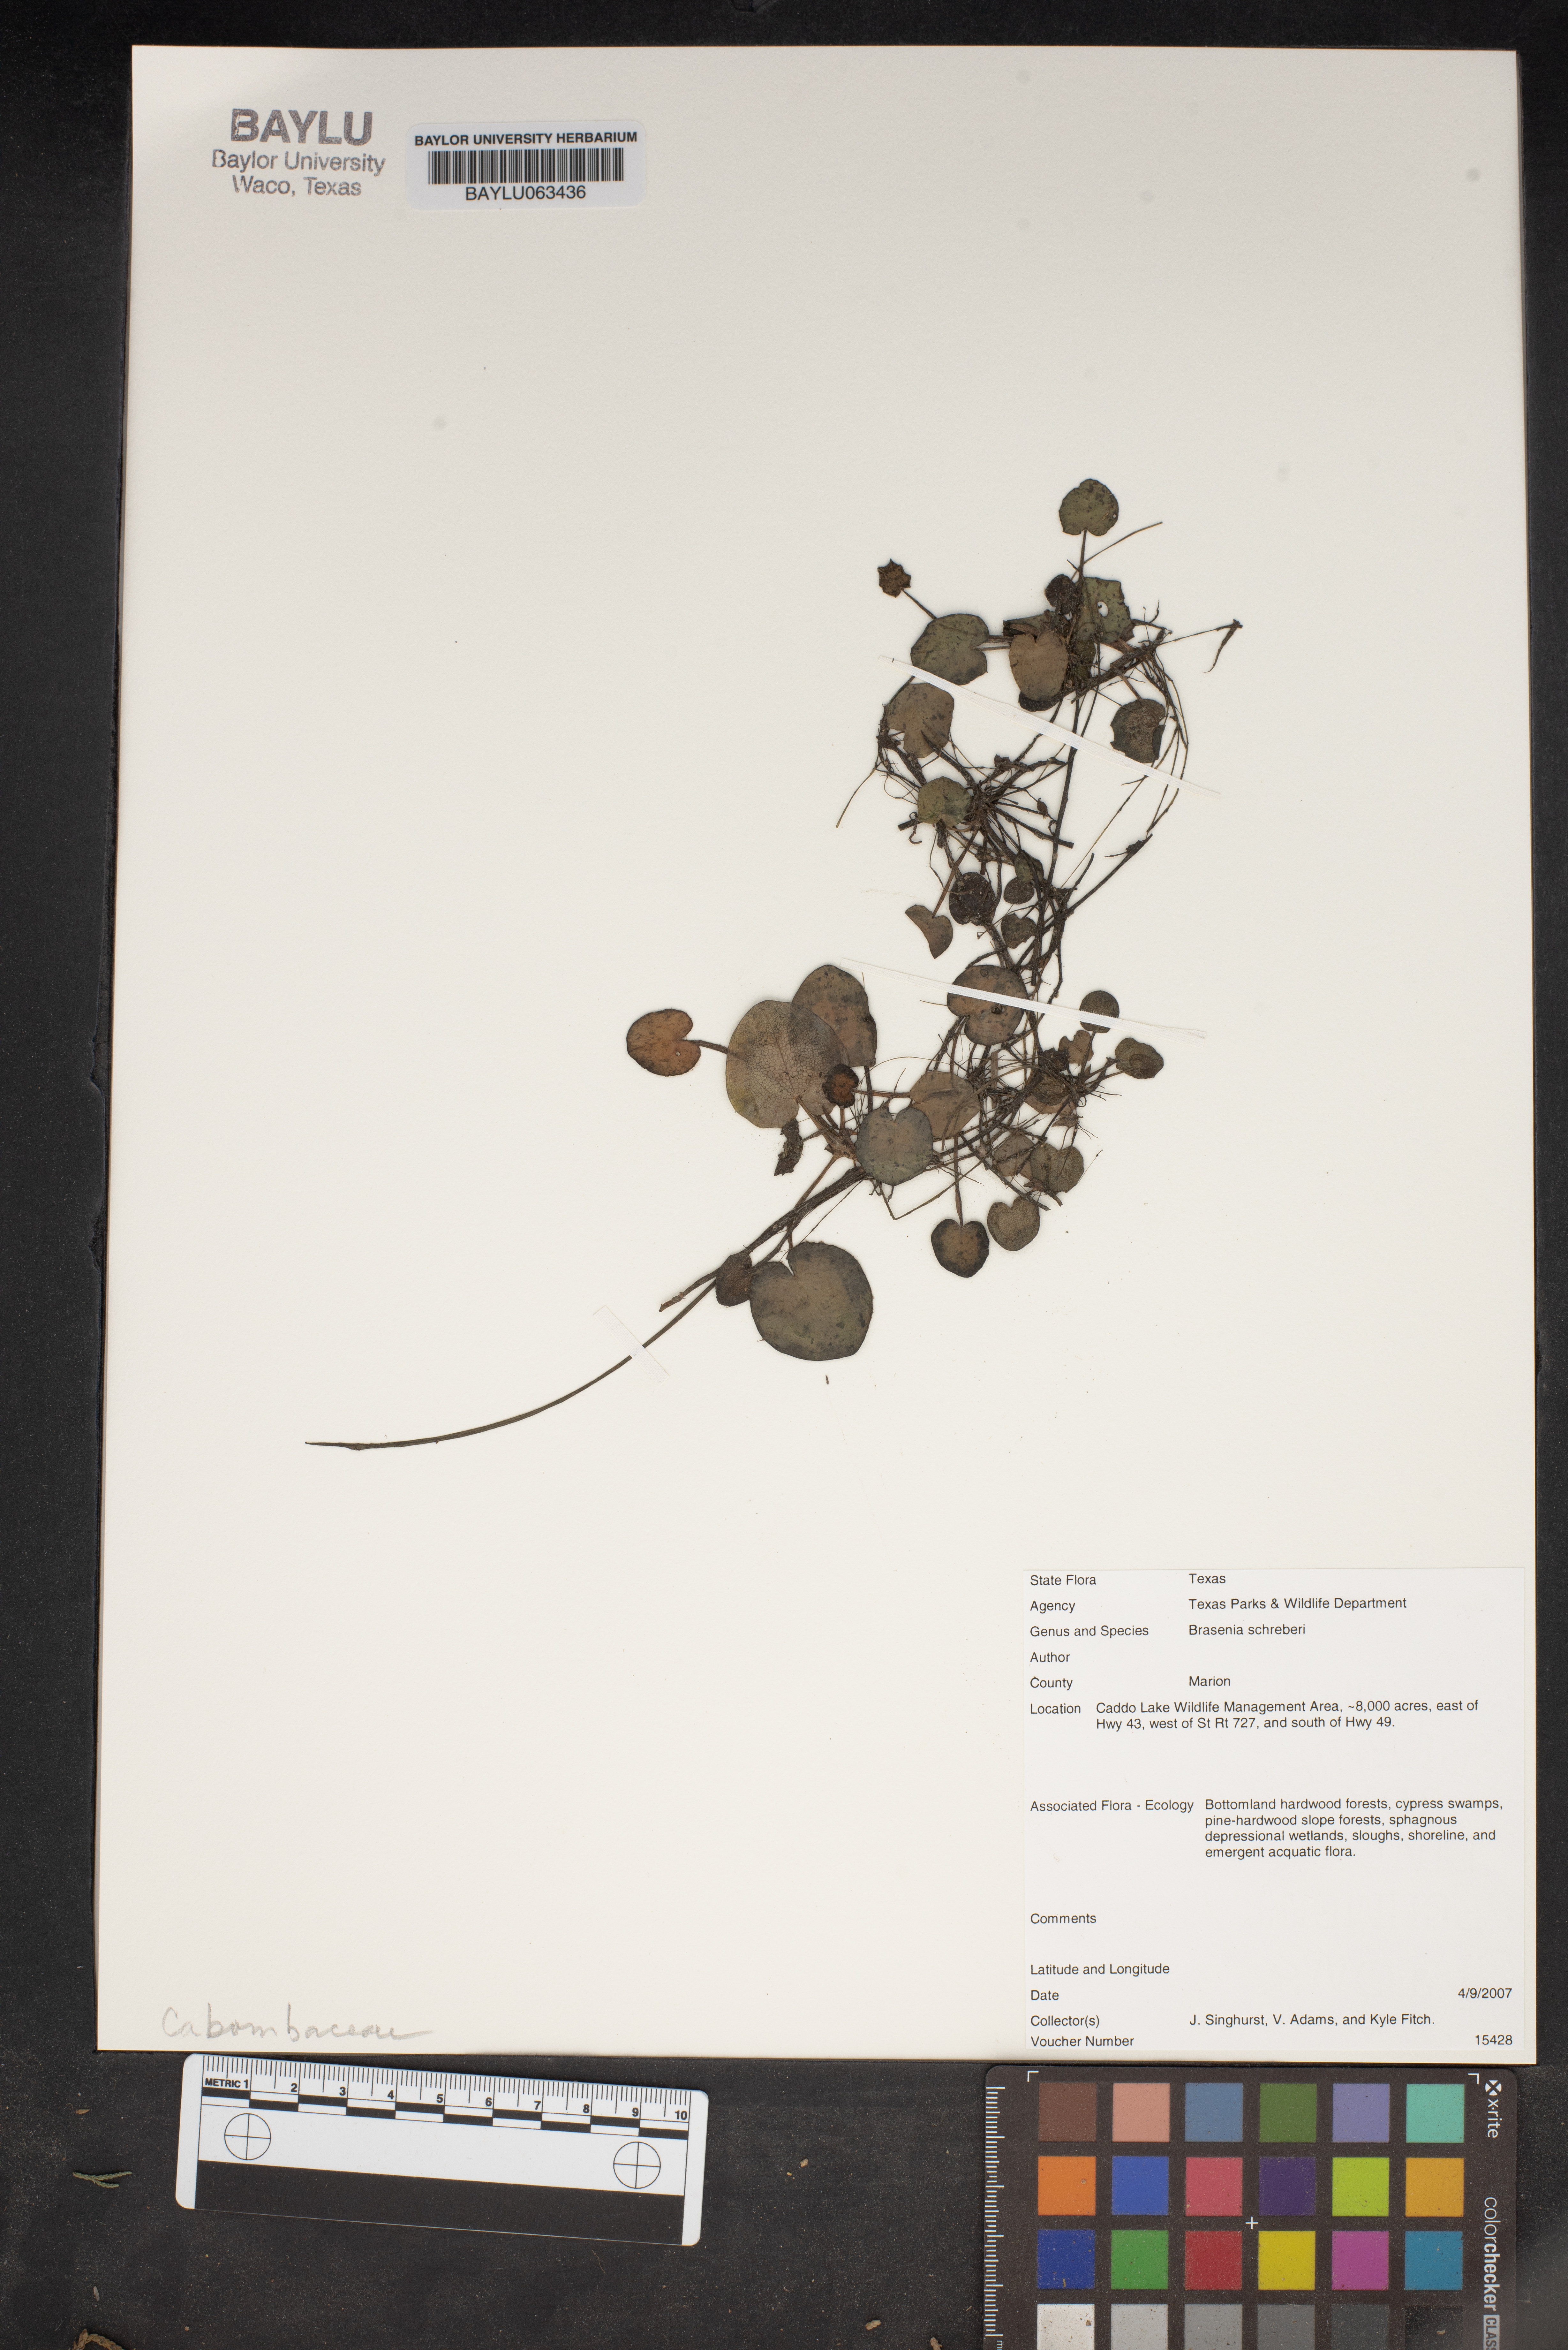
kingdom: Plantae
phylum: Tracheophyta
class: Magnoliopsida
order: Nymphaeales
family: Cabombaceae
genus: Brasenia
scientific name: Brasenia schreberi
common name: Water-shield
